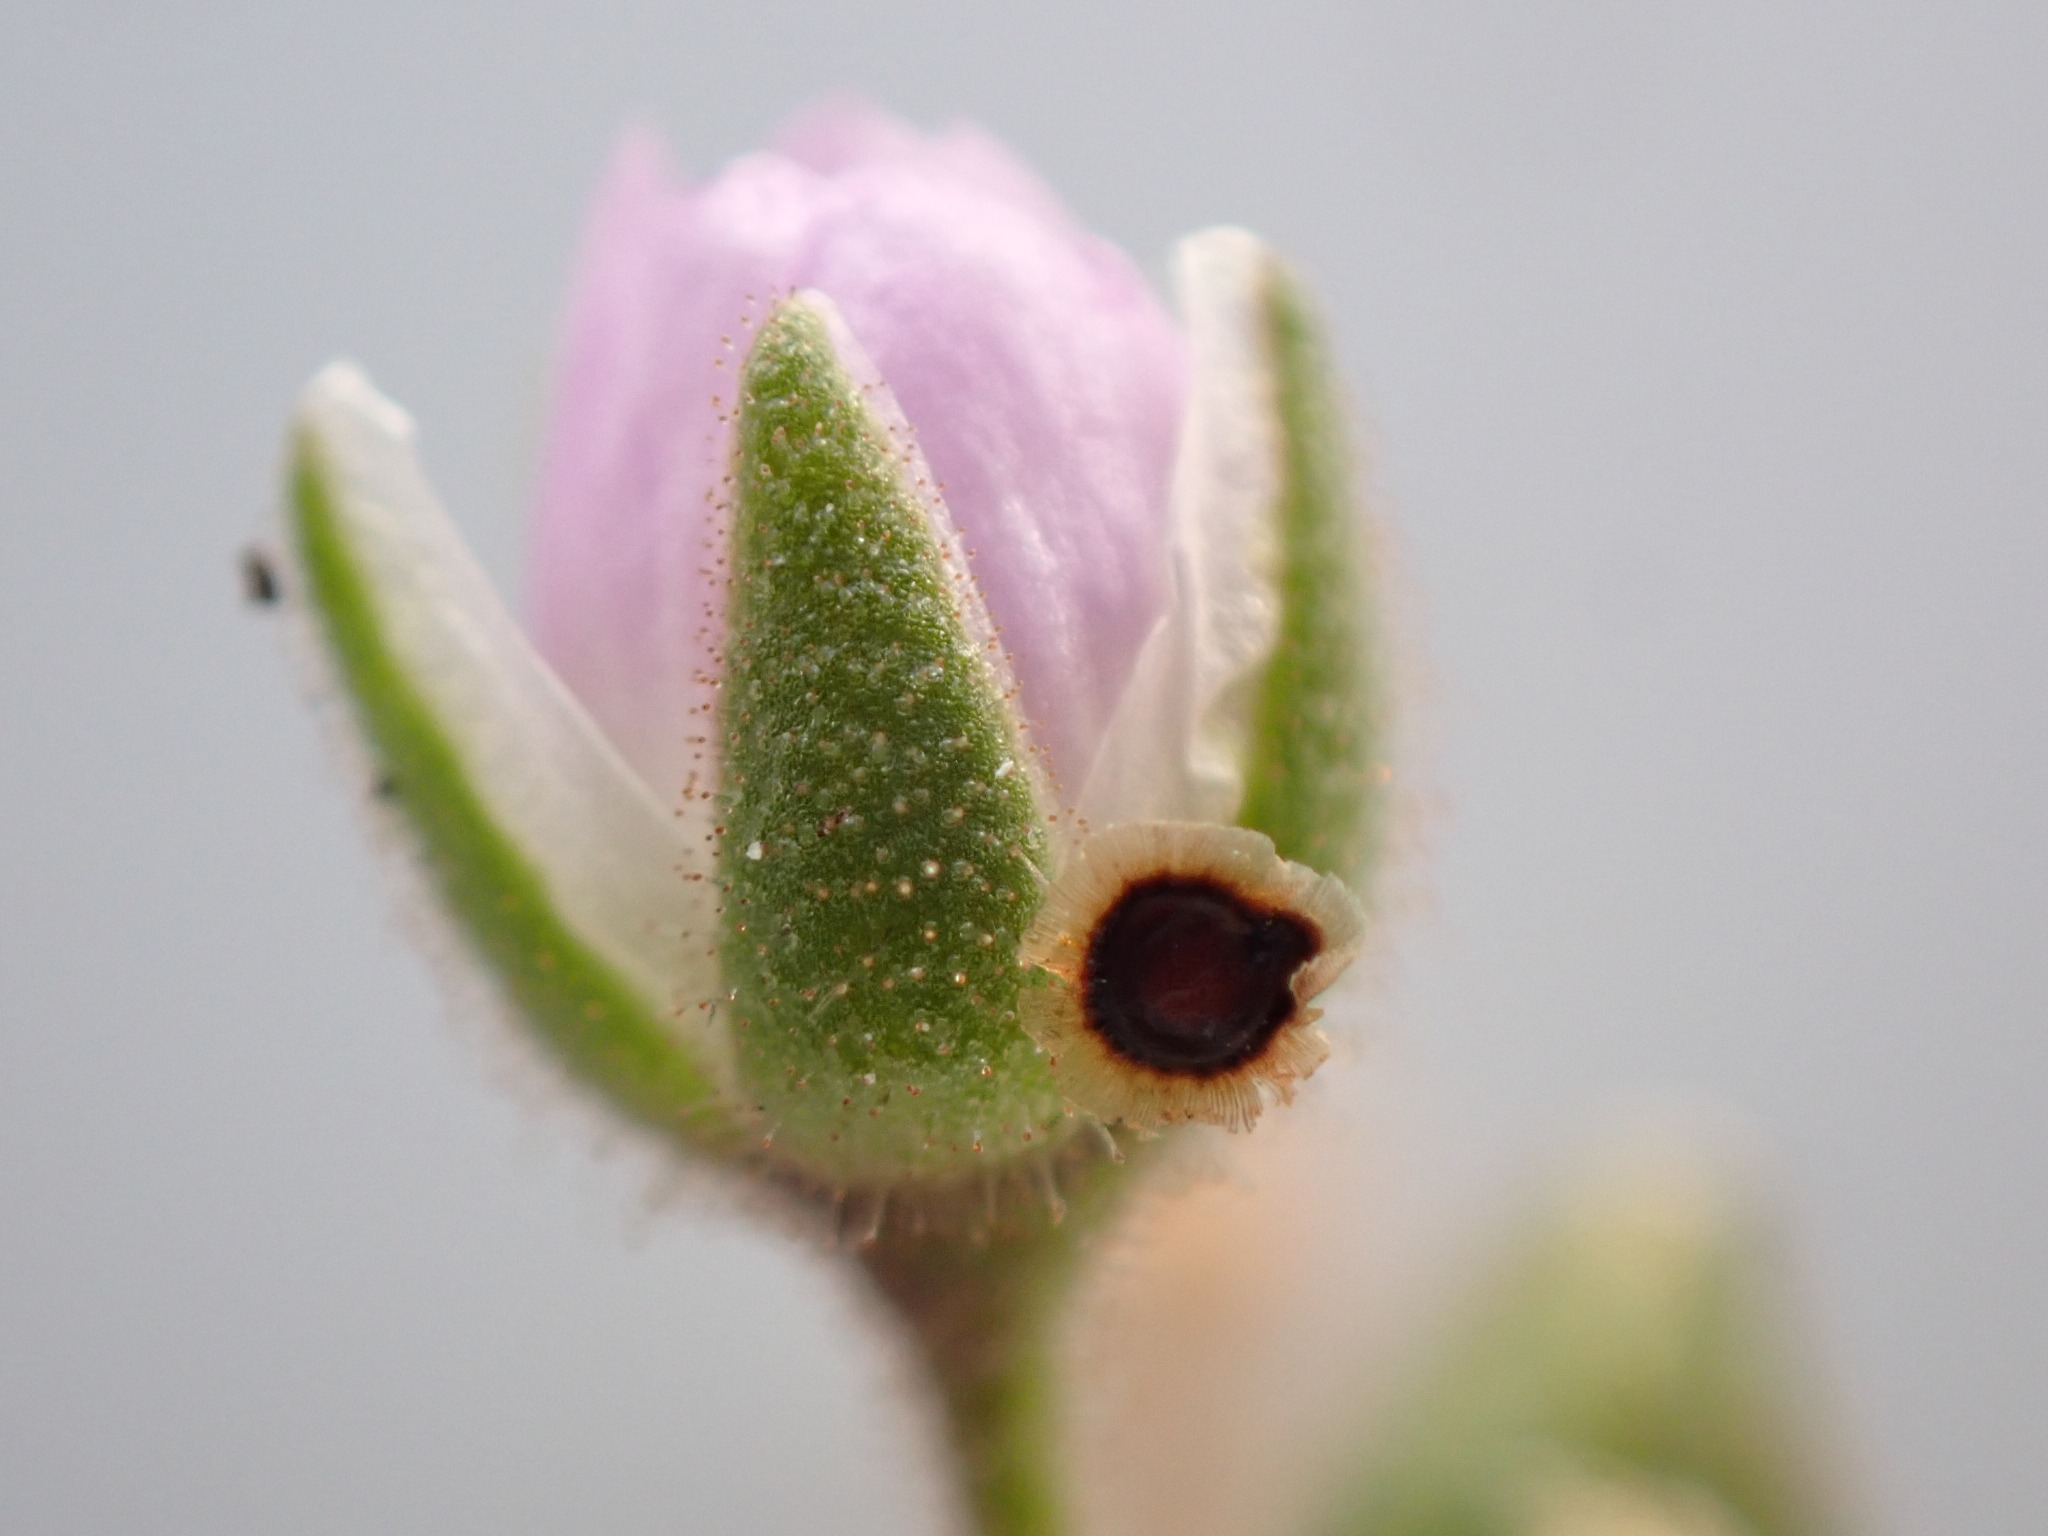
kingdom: Plantae
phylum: Tracheophyta
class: Magnoliopsida
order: Caryophyllales
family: Caryophyllaceae
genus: Spergularia
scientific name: Spergularia media
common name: Vingefrøet hindeknæ
